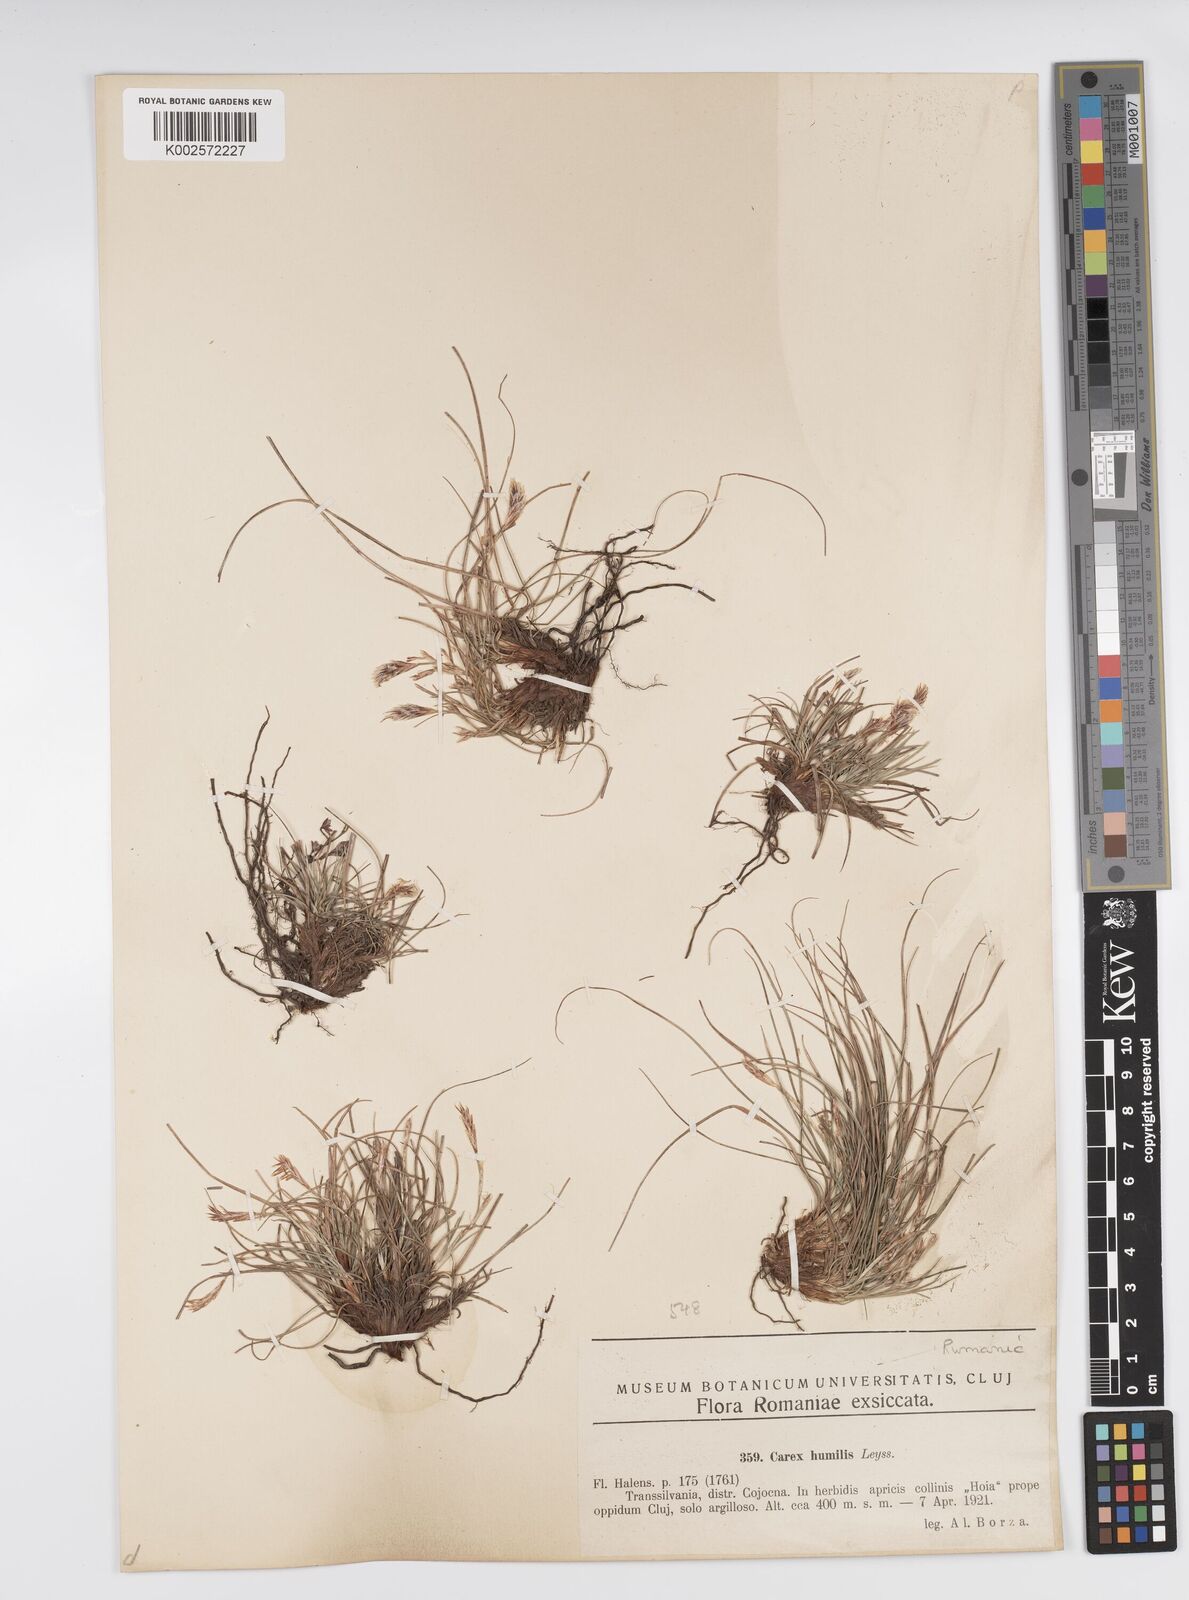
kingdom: Plantae
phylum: Tracheophyta
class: Liliopsida
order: Poales
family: Cyperaceae
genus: Carex
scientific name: Carex humilis
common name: Dwarf sedge
